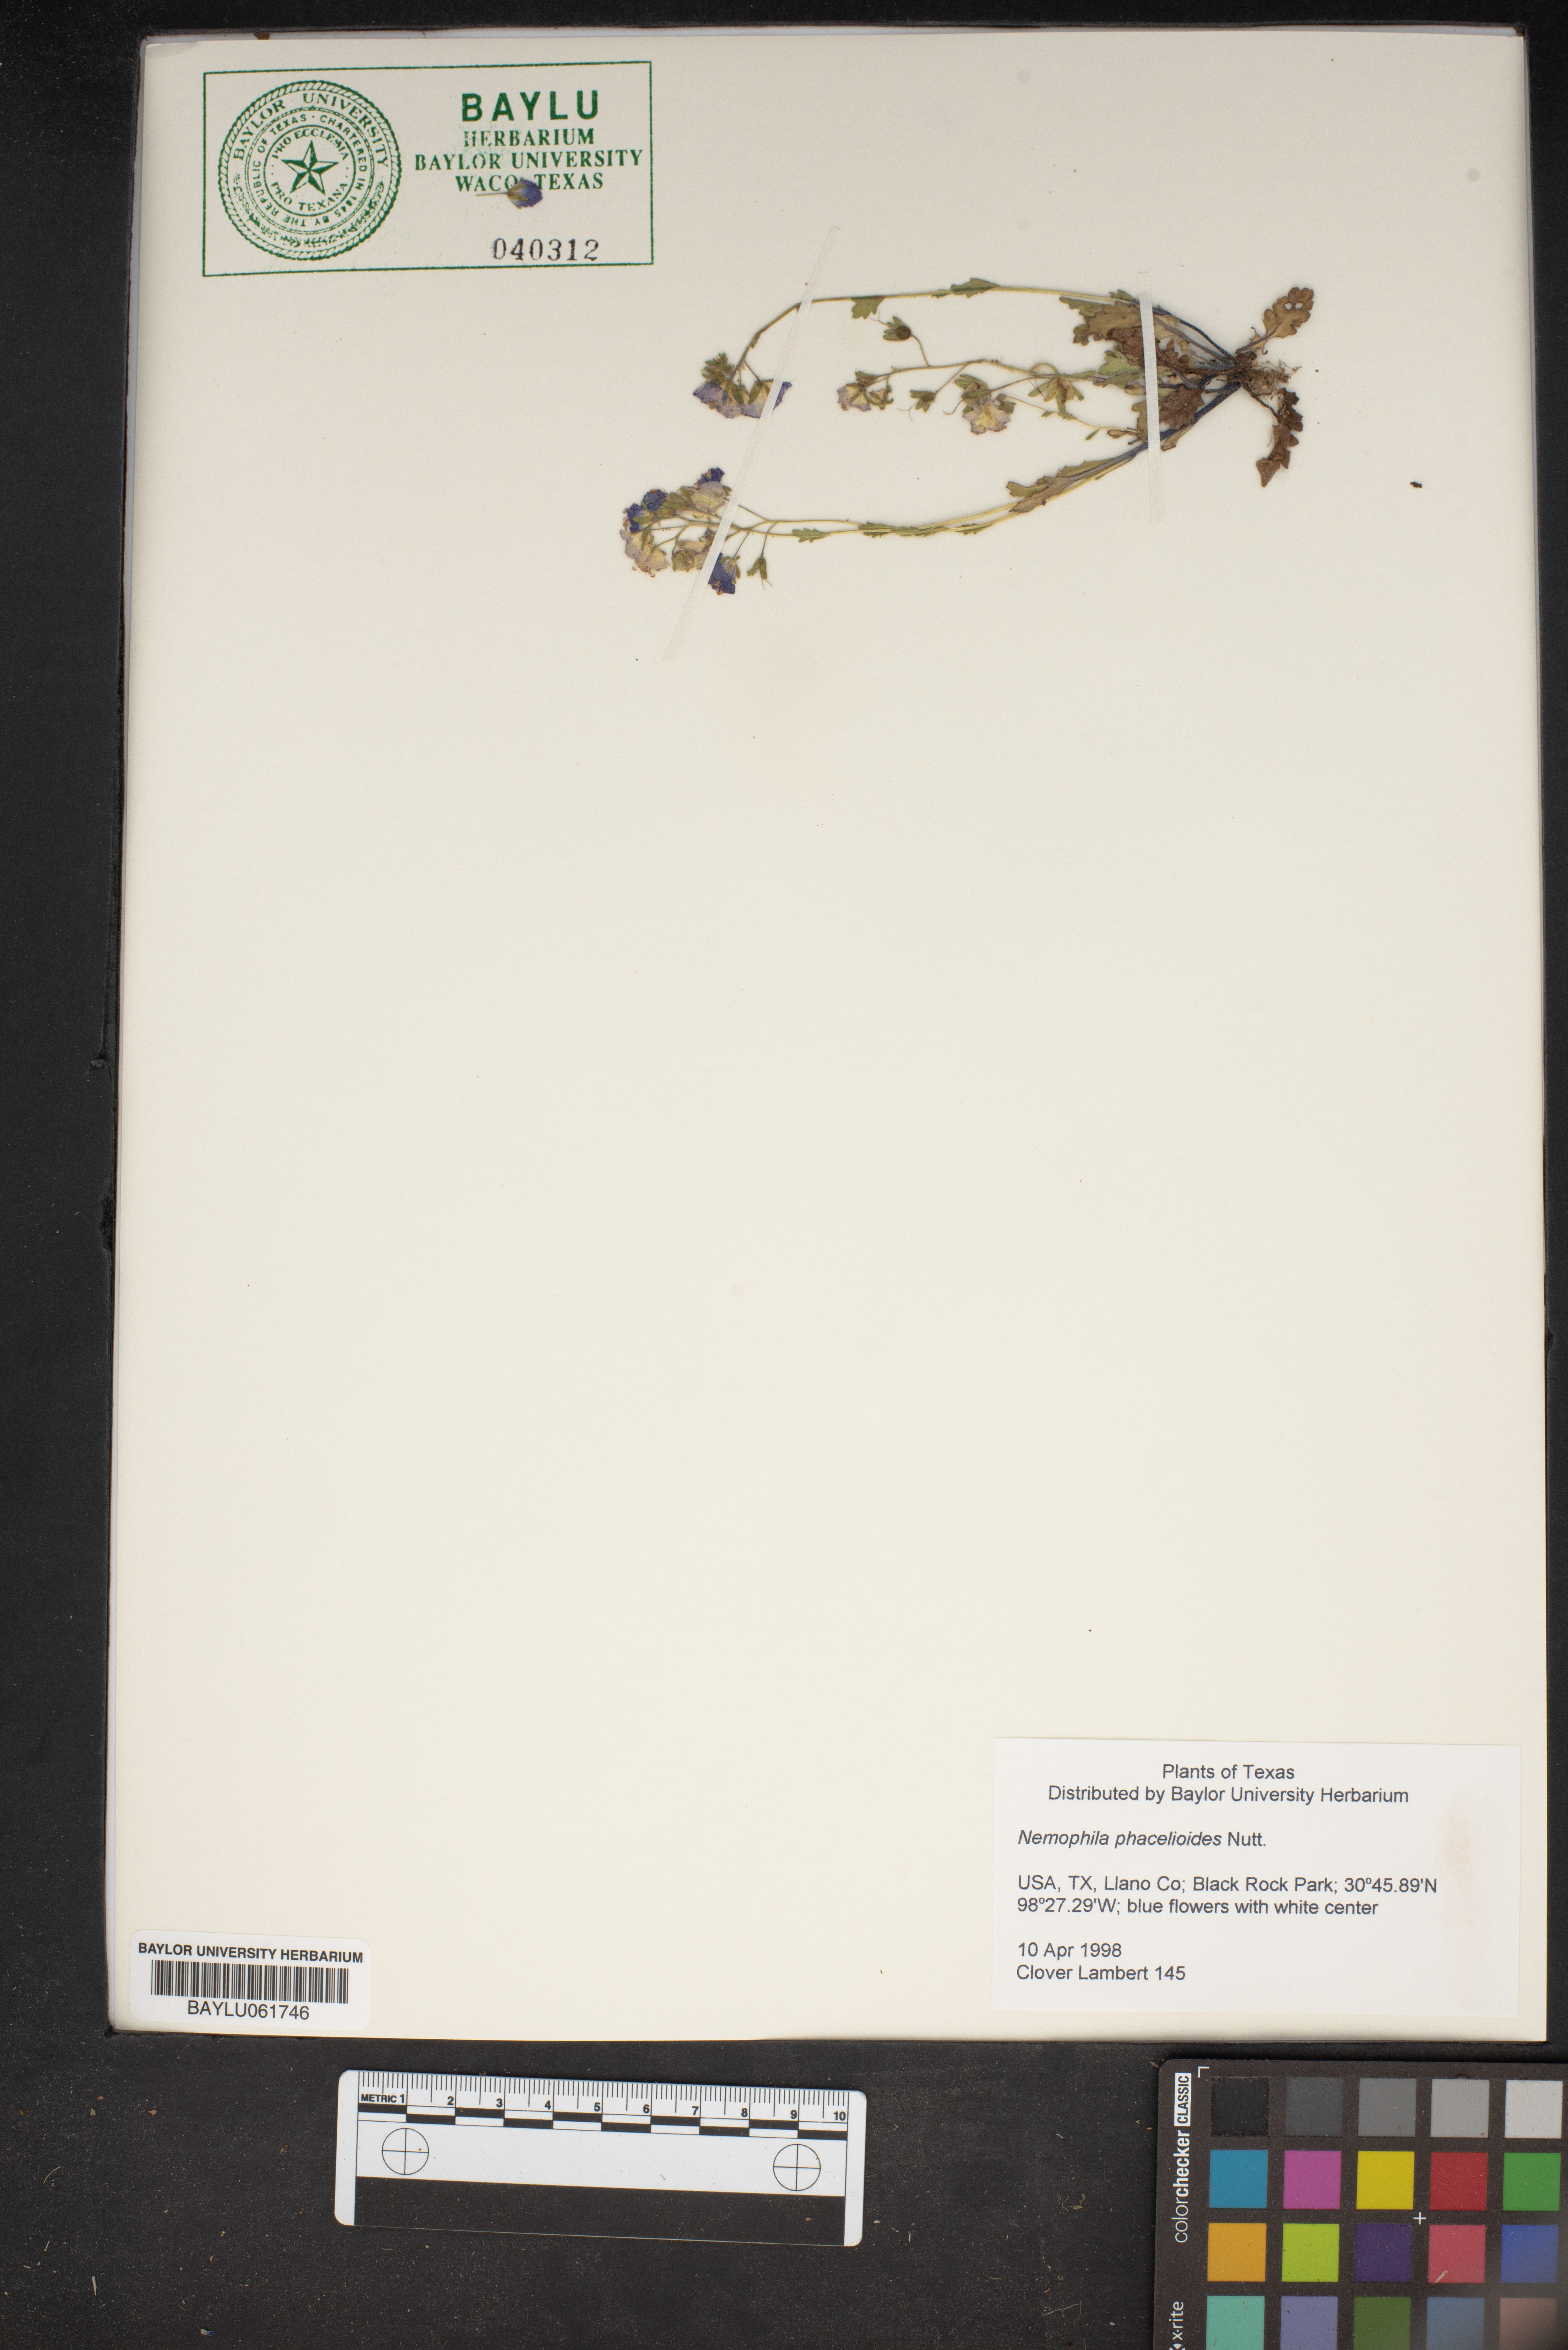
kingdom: Plantae
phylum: Tracheophyta
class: Magnoliopsida
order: Boraginales
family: Hydrophyllaceae
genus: Nemophila
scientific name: Nemophila phacelioides
